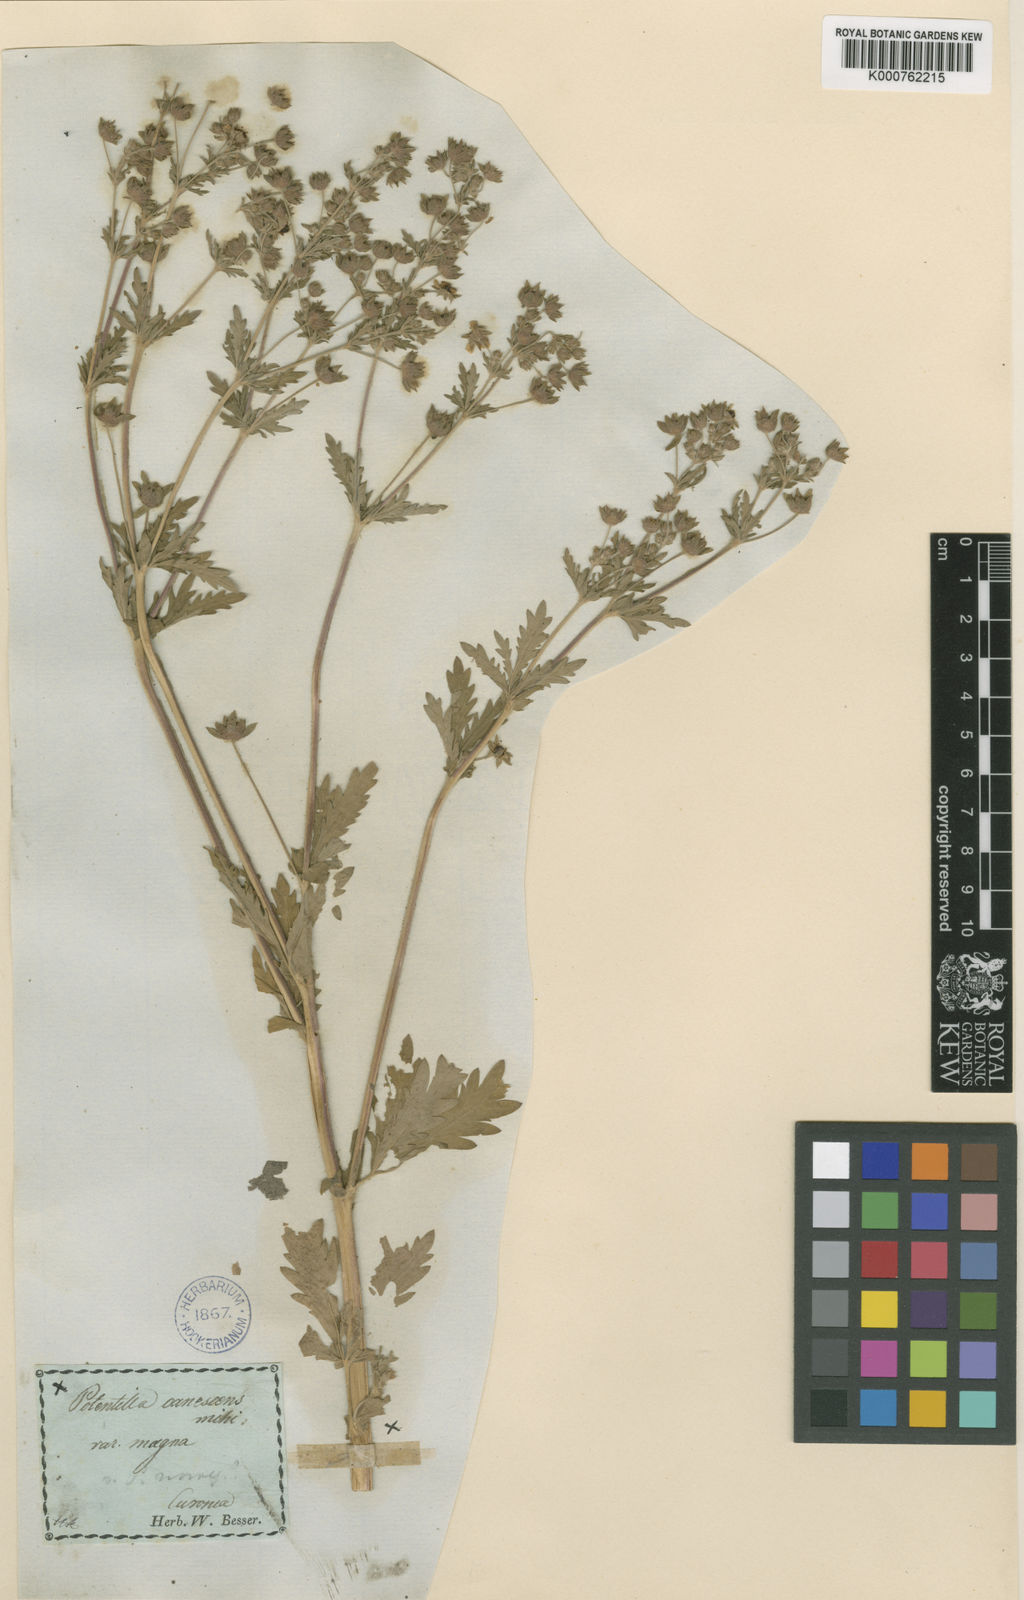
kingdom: Plantae
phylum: Tracheophyta
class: Magnoliopsida
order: Rosales
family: Rosaceae
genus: Potentilla
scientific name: Potentilla inclinata
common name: Grey cinquefoil
